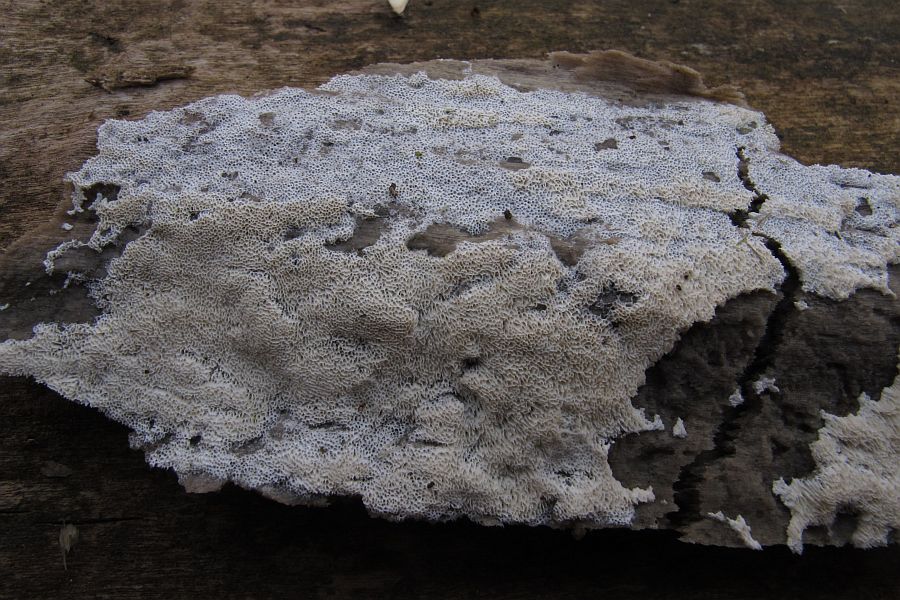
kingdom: Fungi
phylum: Basidiomycota
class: Agaricomycetes
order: Hymenochaetales
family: Schizoporaceae
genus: Xylodon
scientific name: Xylodon subtropicus
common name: labyrint-tandsvamp
